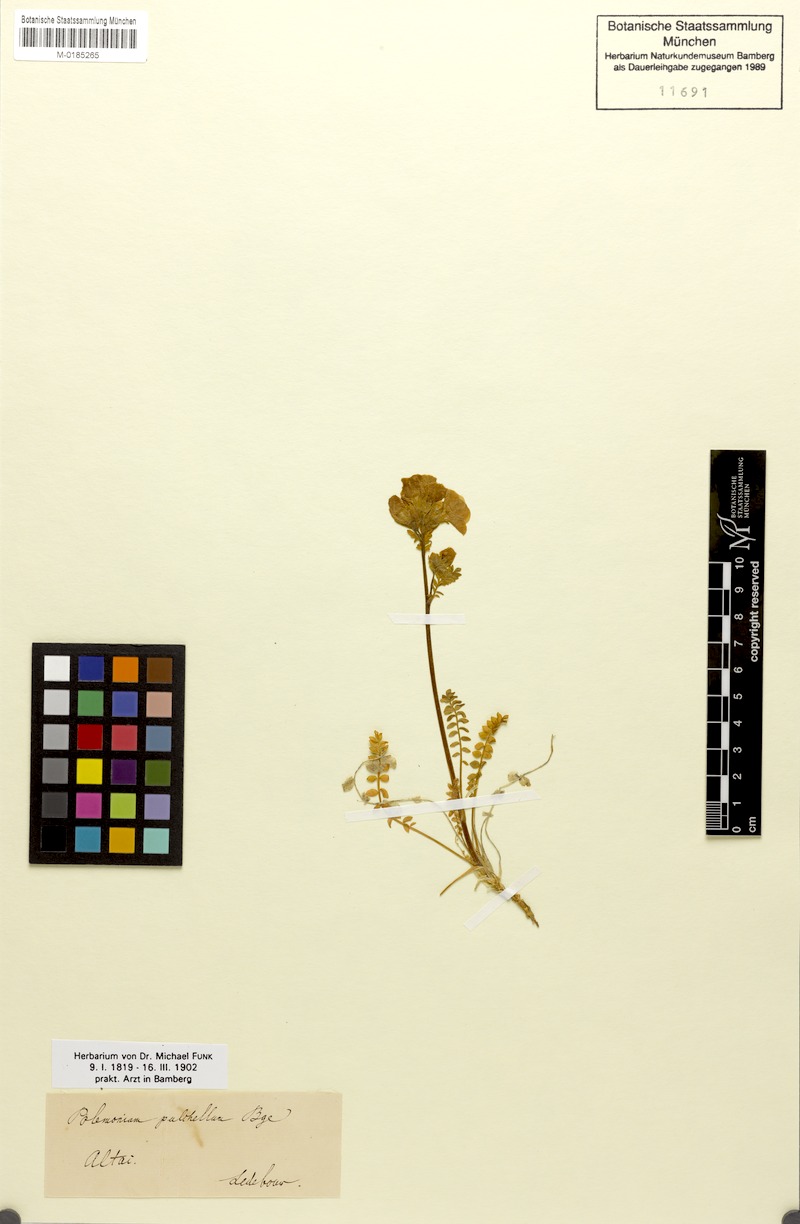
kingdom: Plantae
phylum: Tracheophyta
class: Magnoliopsida
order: Ericales
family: Polemoniaceae
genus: Polemonium
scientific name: Polemonium pulchellum
